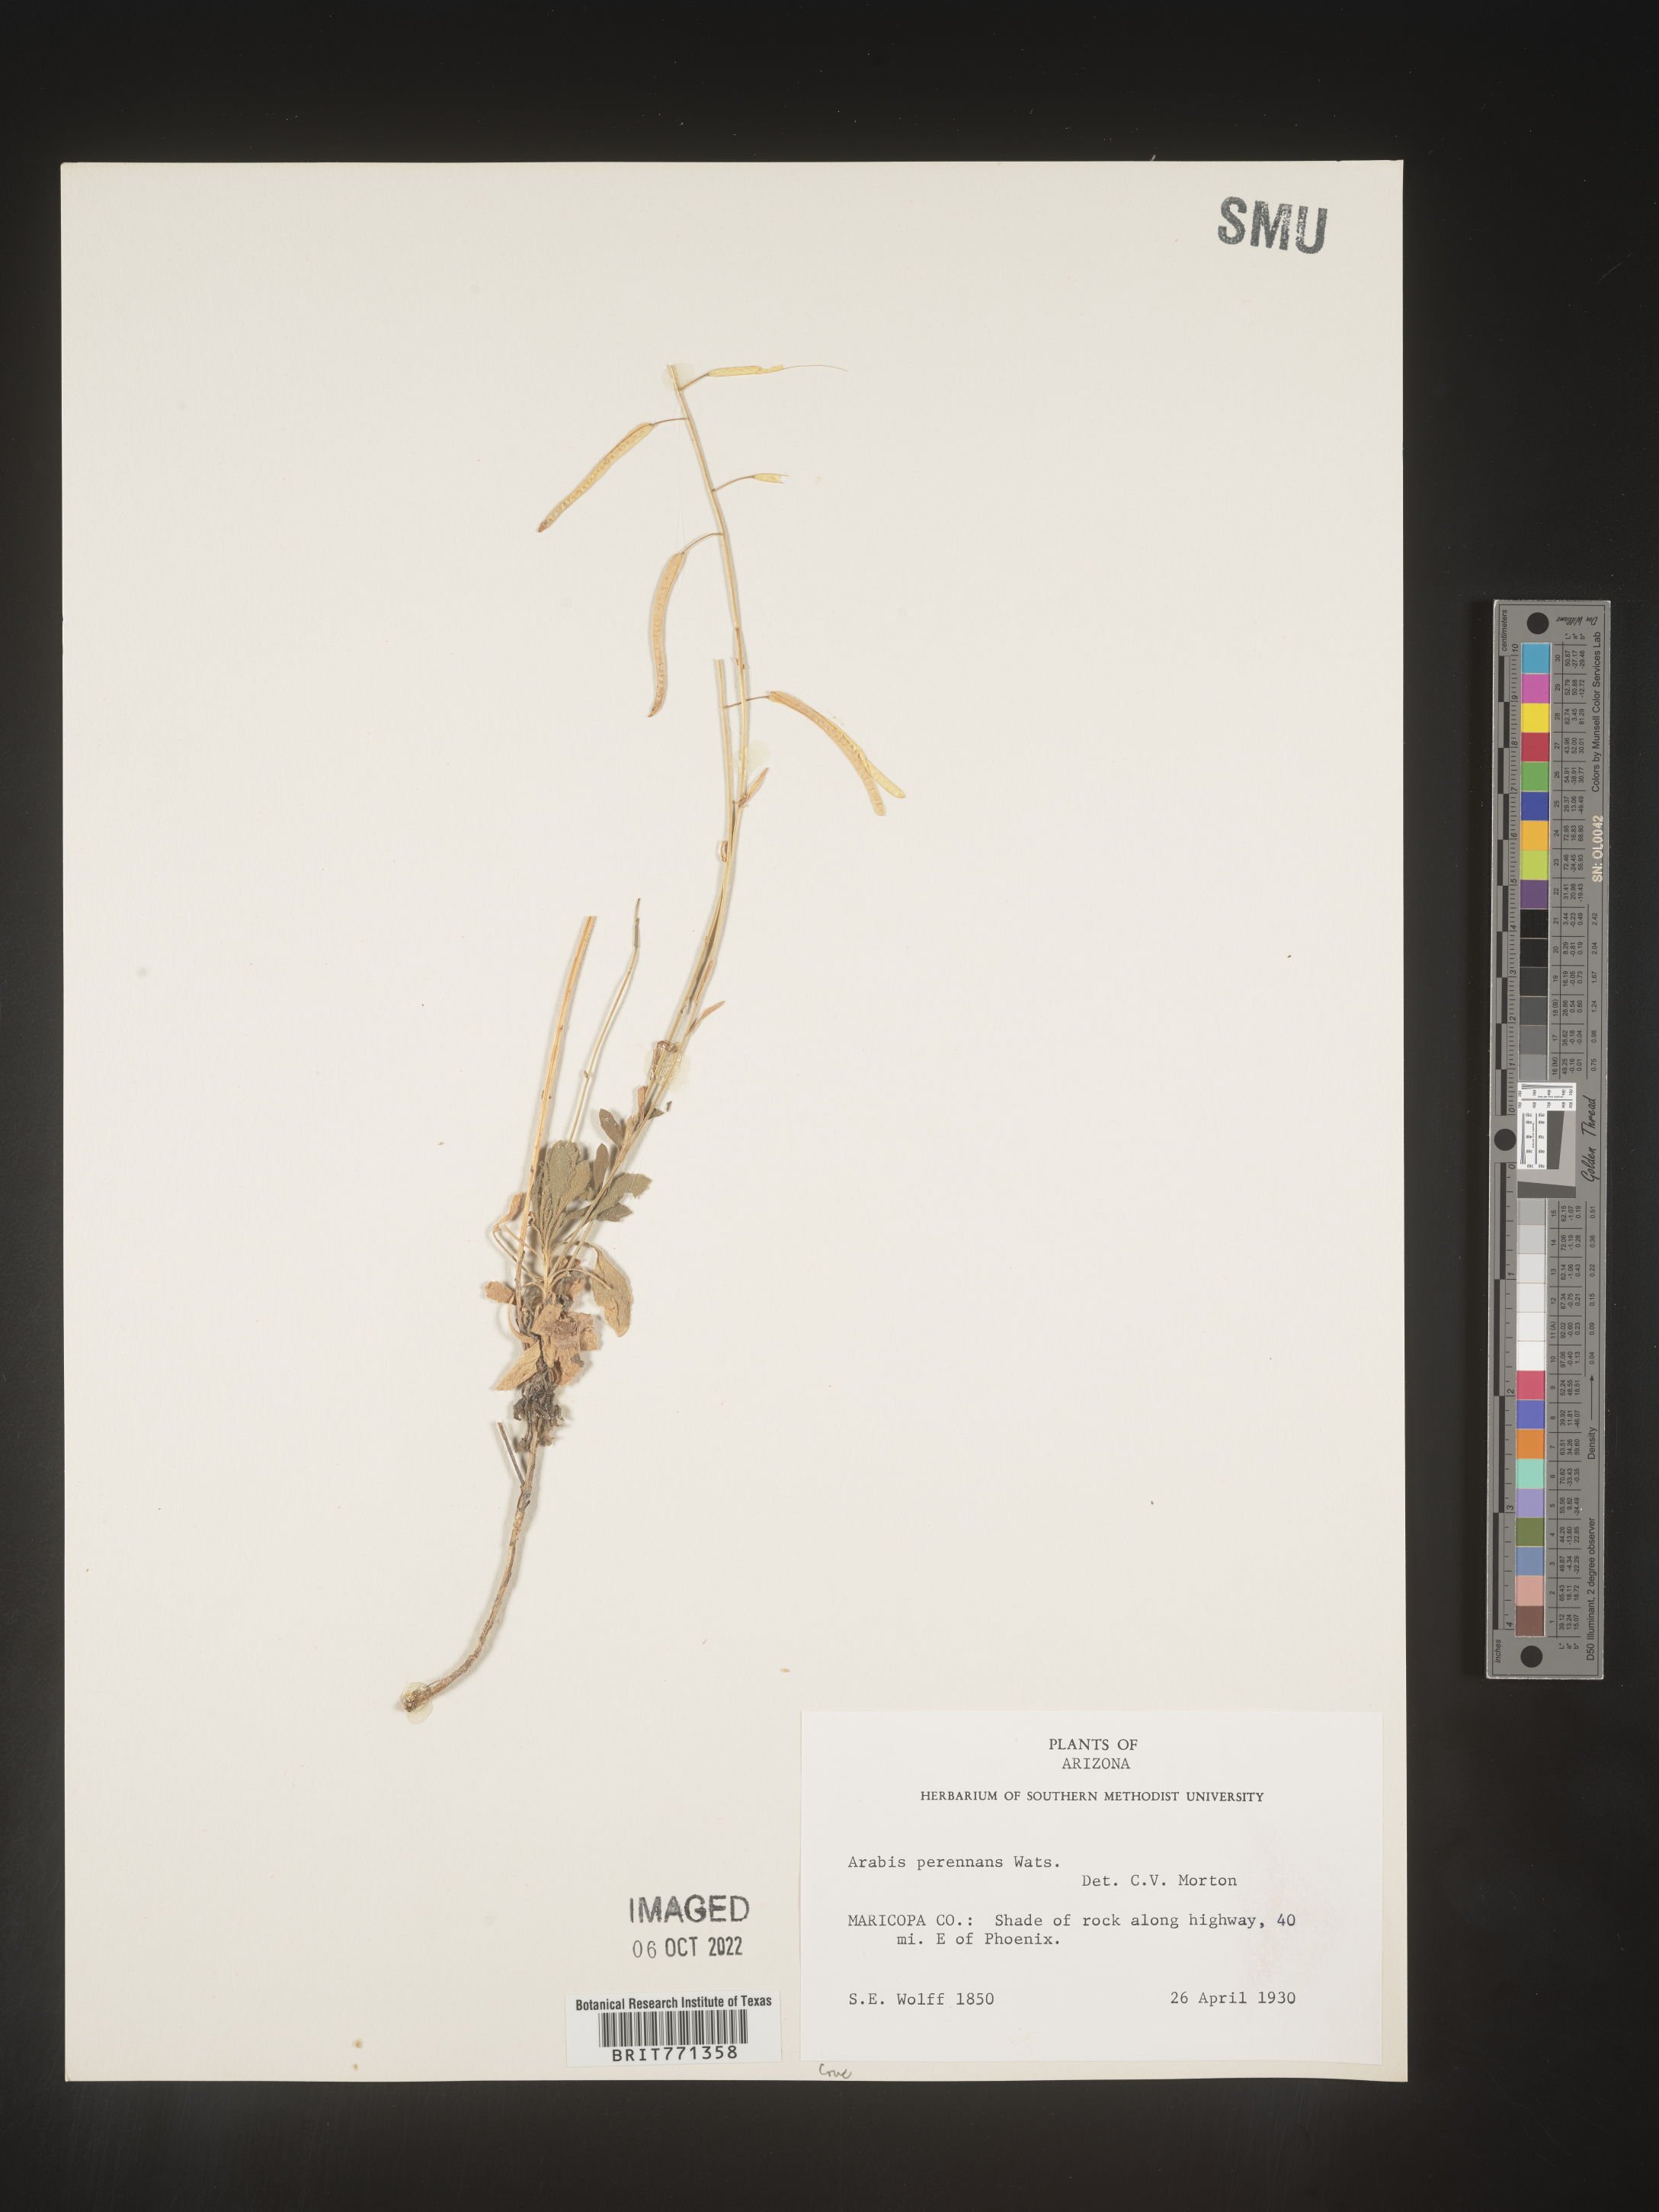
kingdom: Plantae
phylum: Tracheophyta
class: Magnoliopsida
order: Brassicales
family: Brassicaceae
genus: Arabis
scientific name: Arabis
